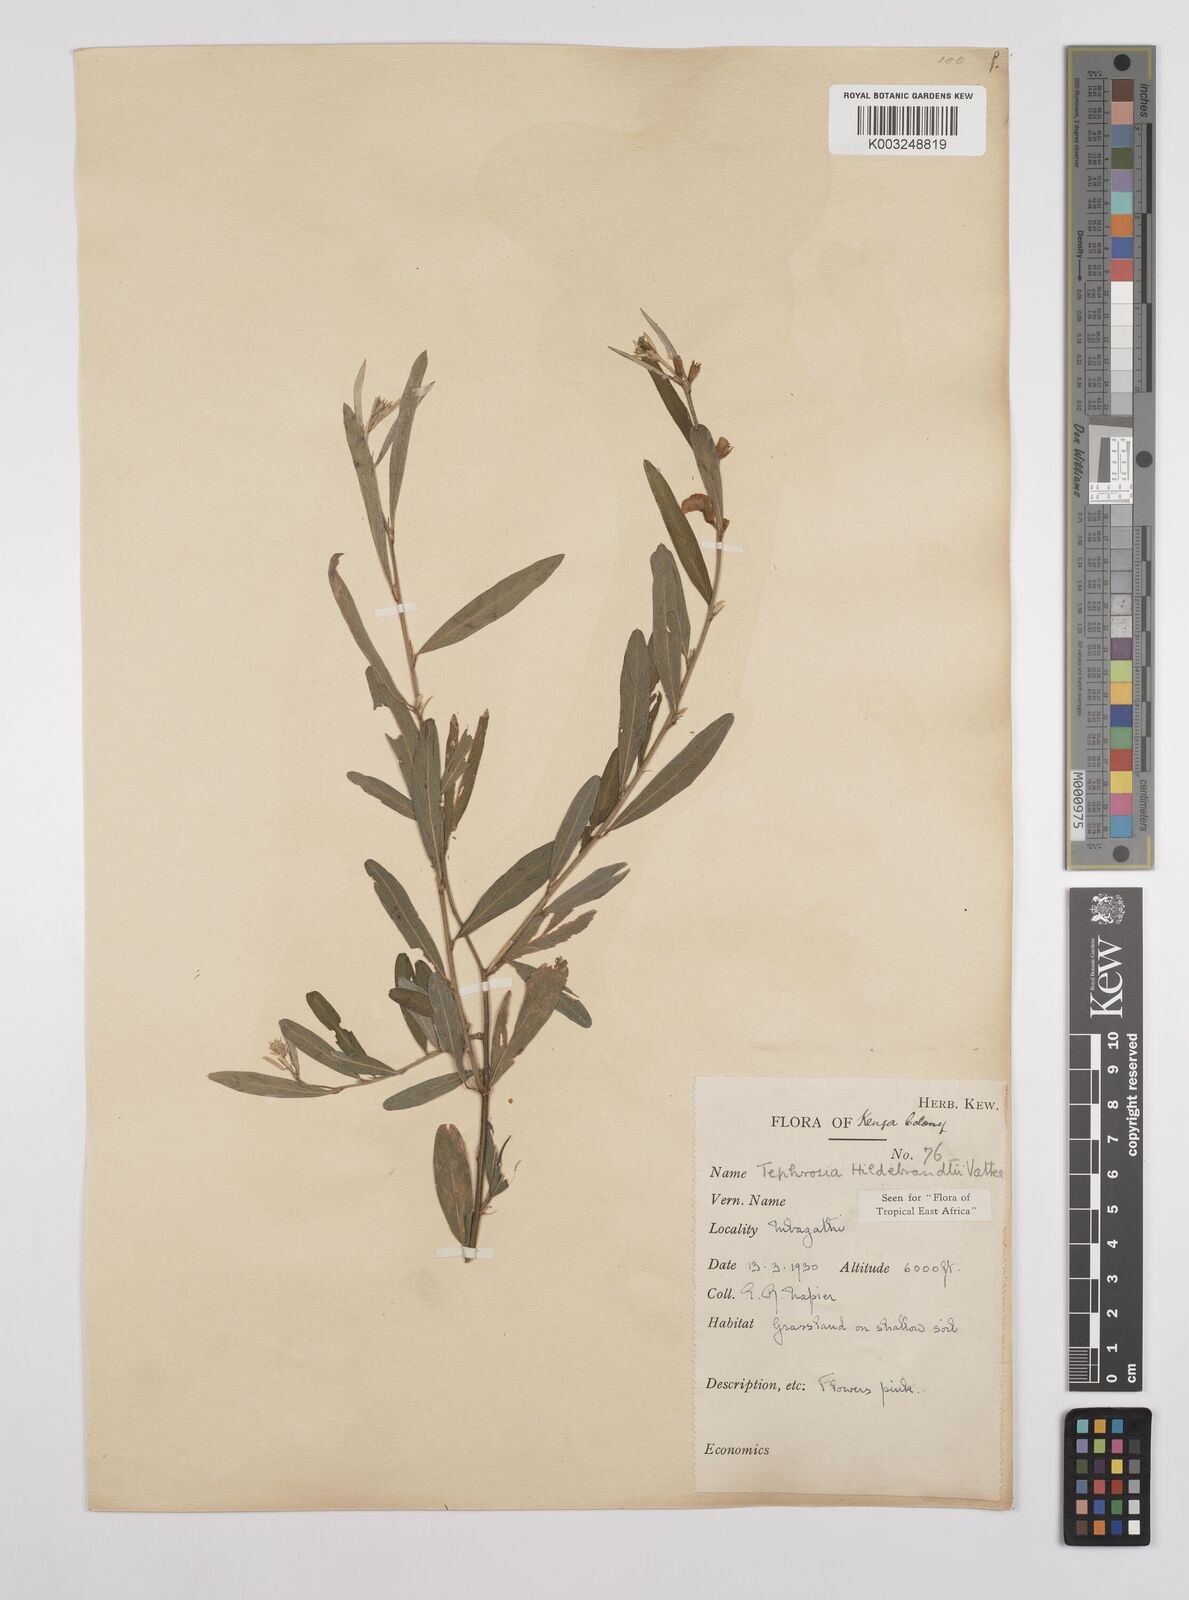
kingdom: Plantae
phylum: Tracheophyta
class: Magnoliopsida
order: Fabales
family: Fabaceae
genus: Tephrosia
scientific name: Tephrosia hildebrandtii
